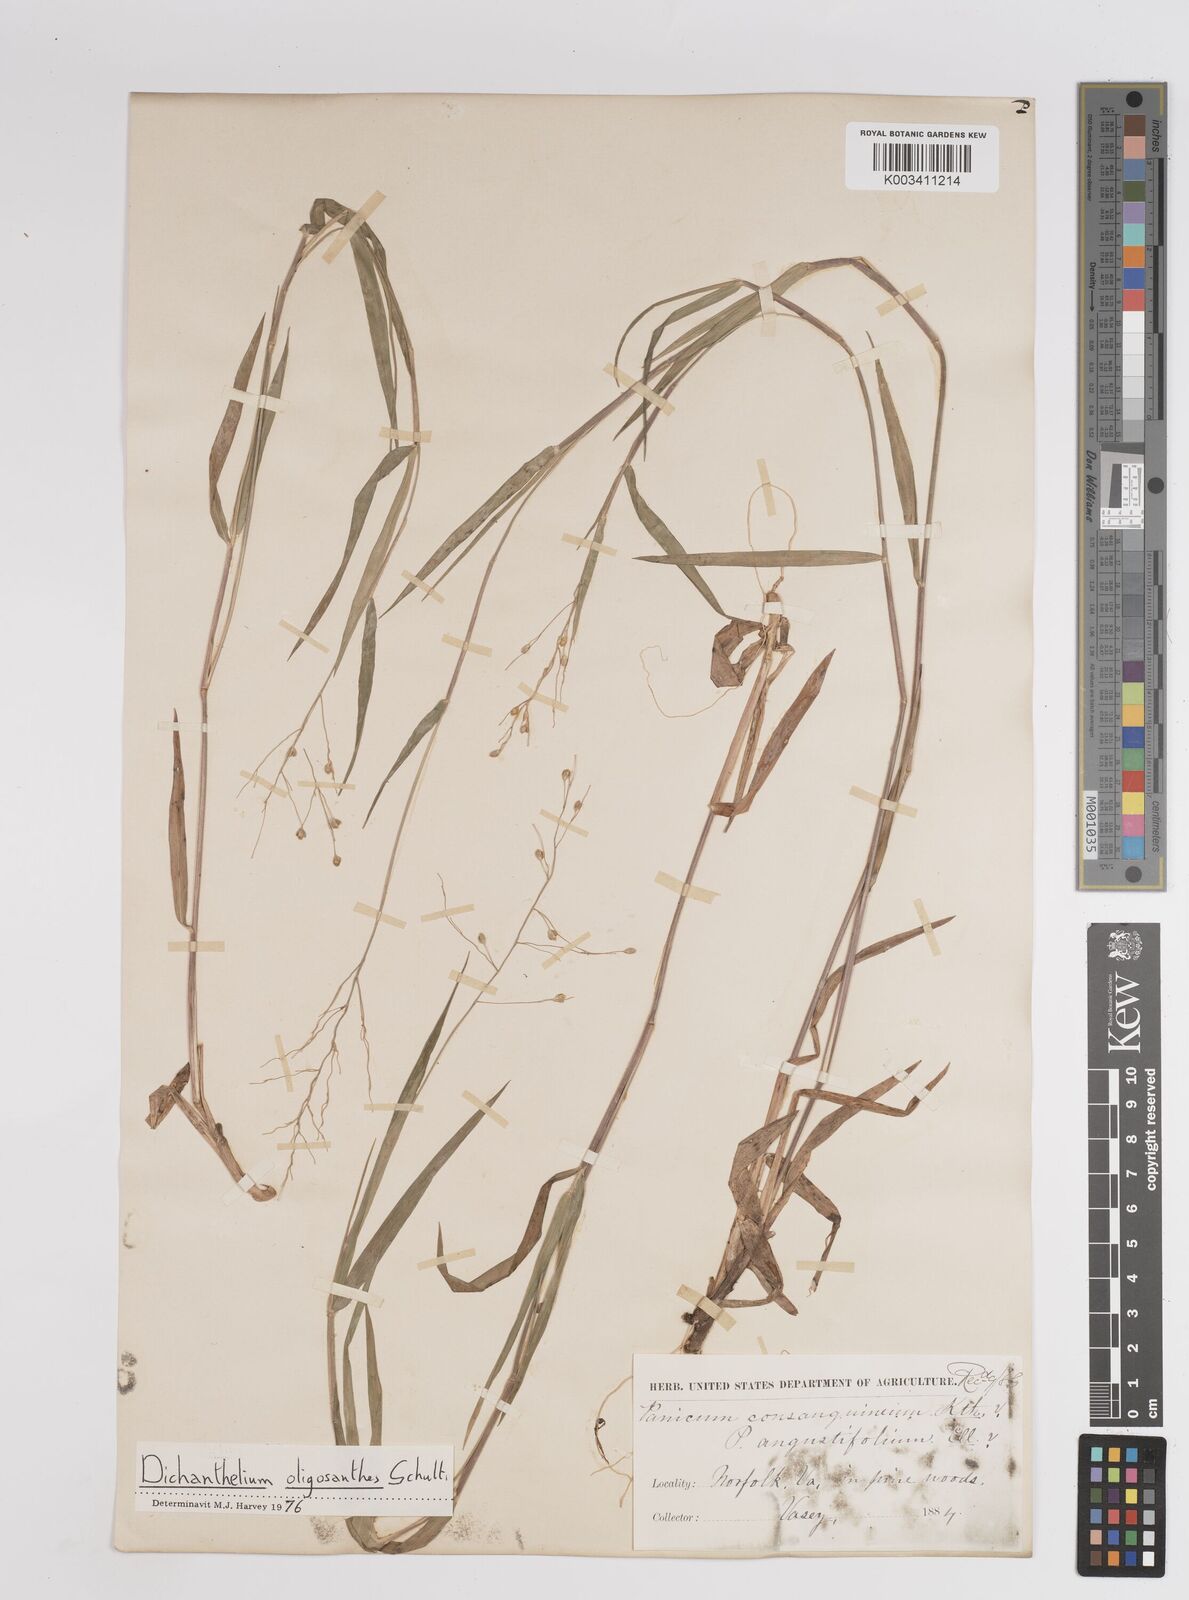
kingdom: Plantae
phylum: Tracheophyta
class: Liliopsida
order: Poales
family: Poaceae
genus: Dichanthelium
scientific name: Dichanthelium oligosanthes
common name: Few-anther obscuregrass
